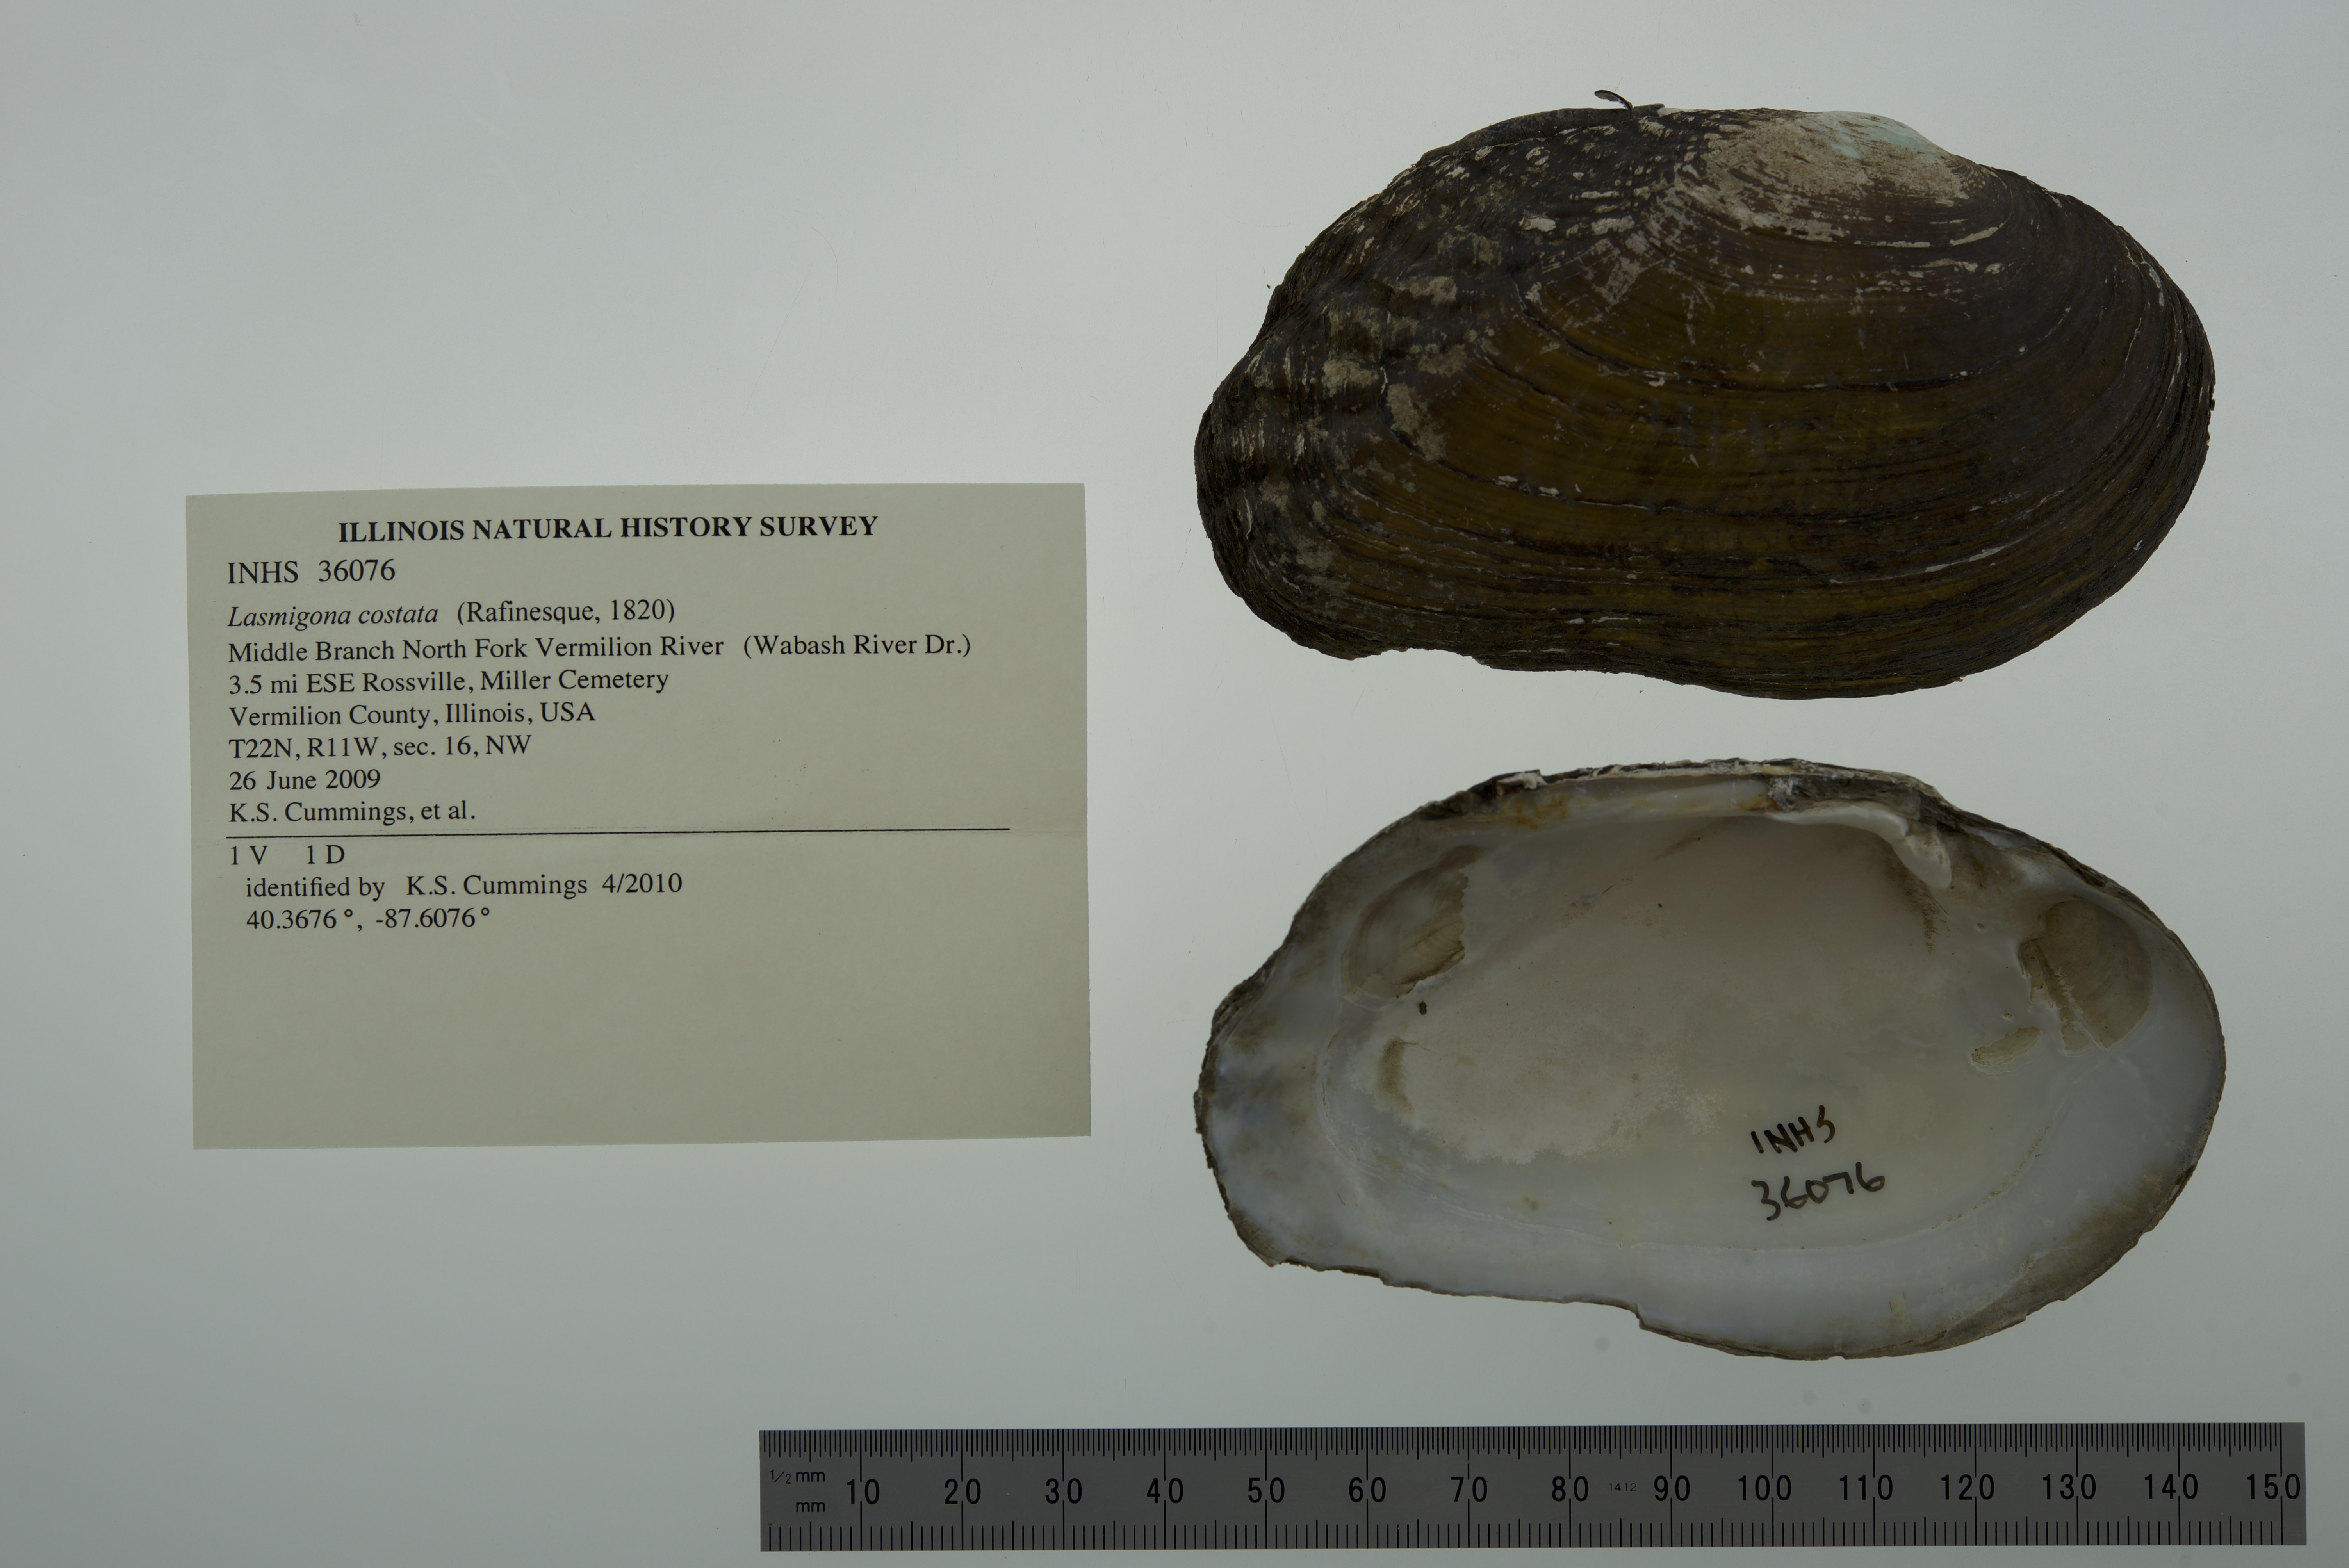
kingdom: Animalia
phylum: Mollusca
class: Bivalvia
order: Unionida
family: Unionidae
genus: Lasmigona
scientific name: Lasmigona costata
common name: Flutedshell
